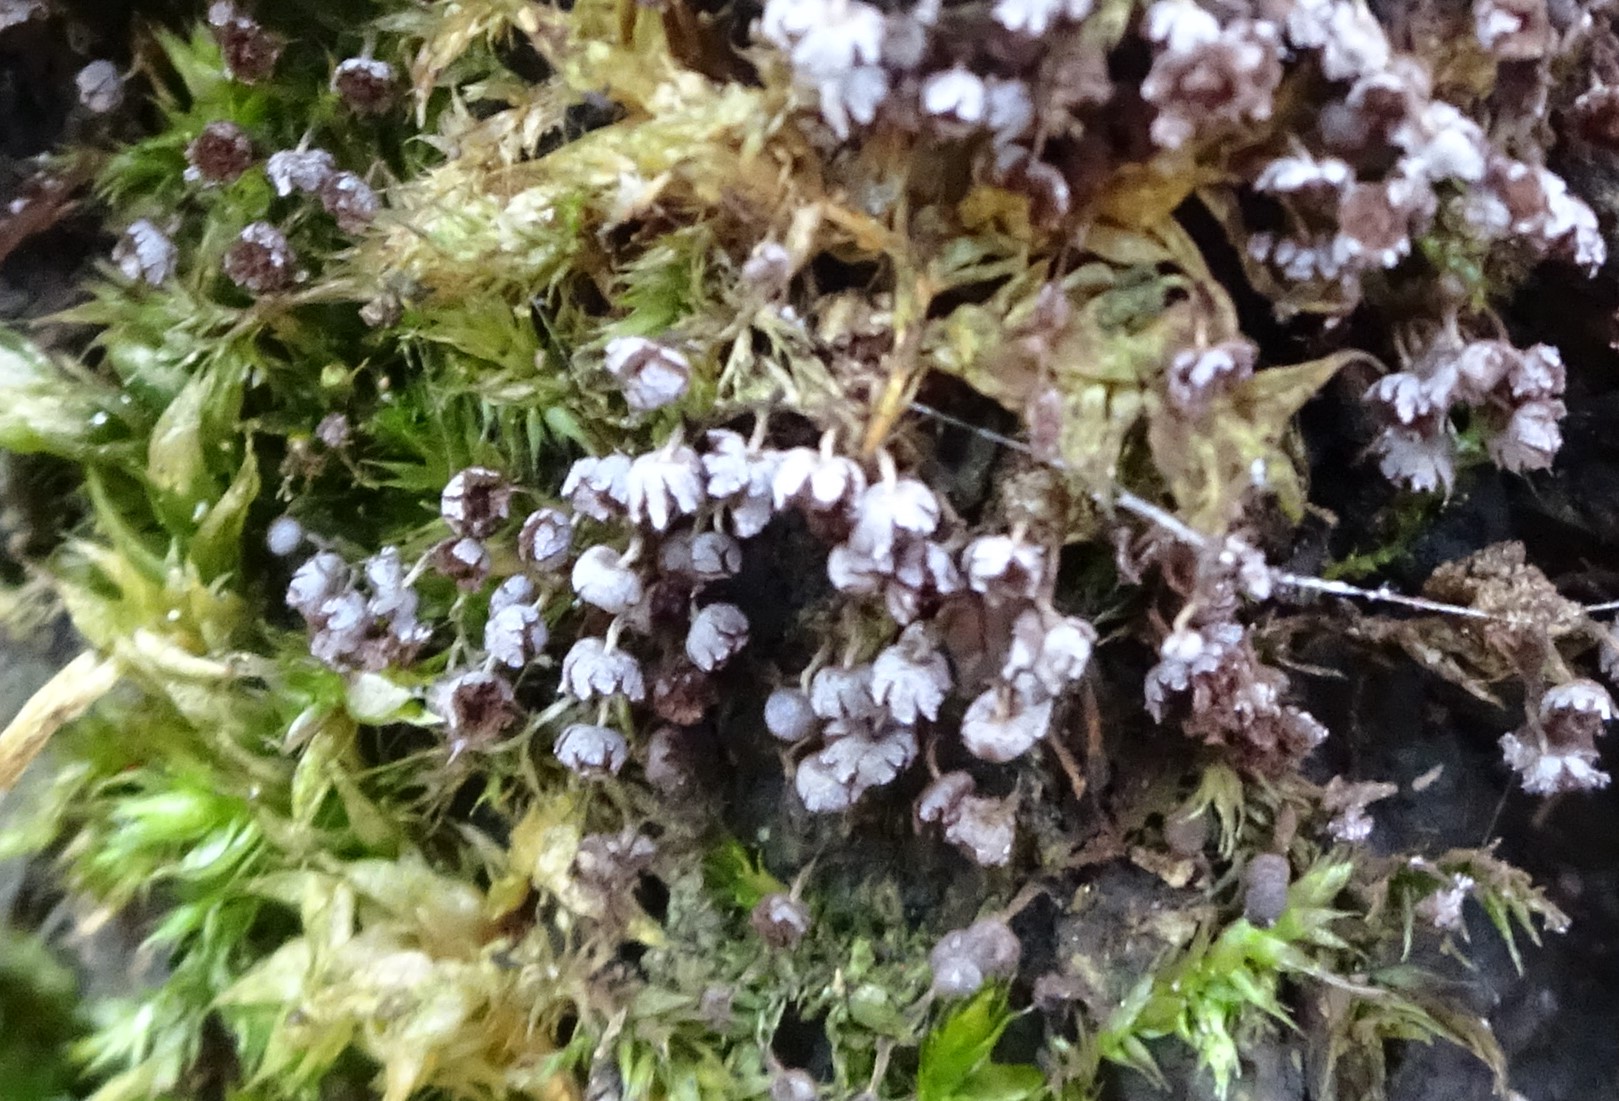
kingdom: Protozoa
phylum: Mycetozoa
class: Myxomycetes
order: Physarales
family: Physaraceae
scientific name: Physaraceae
